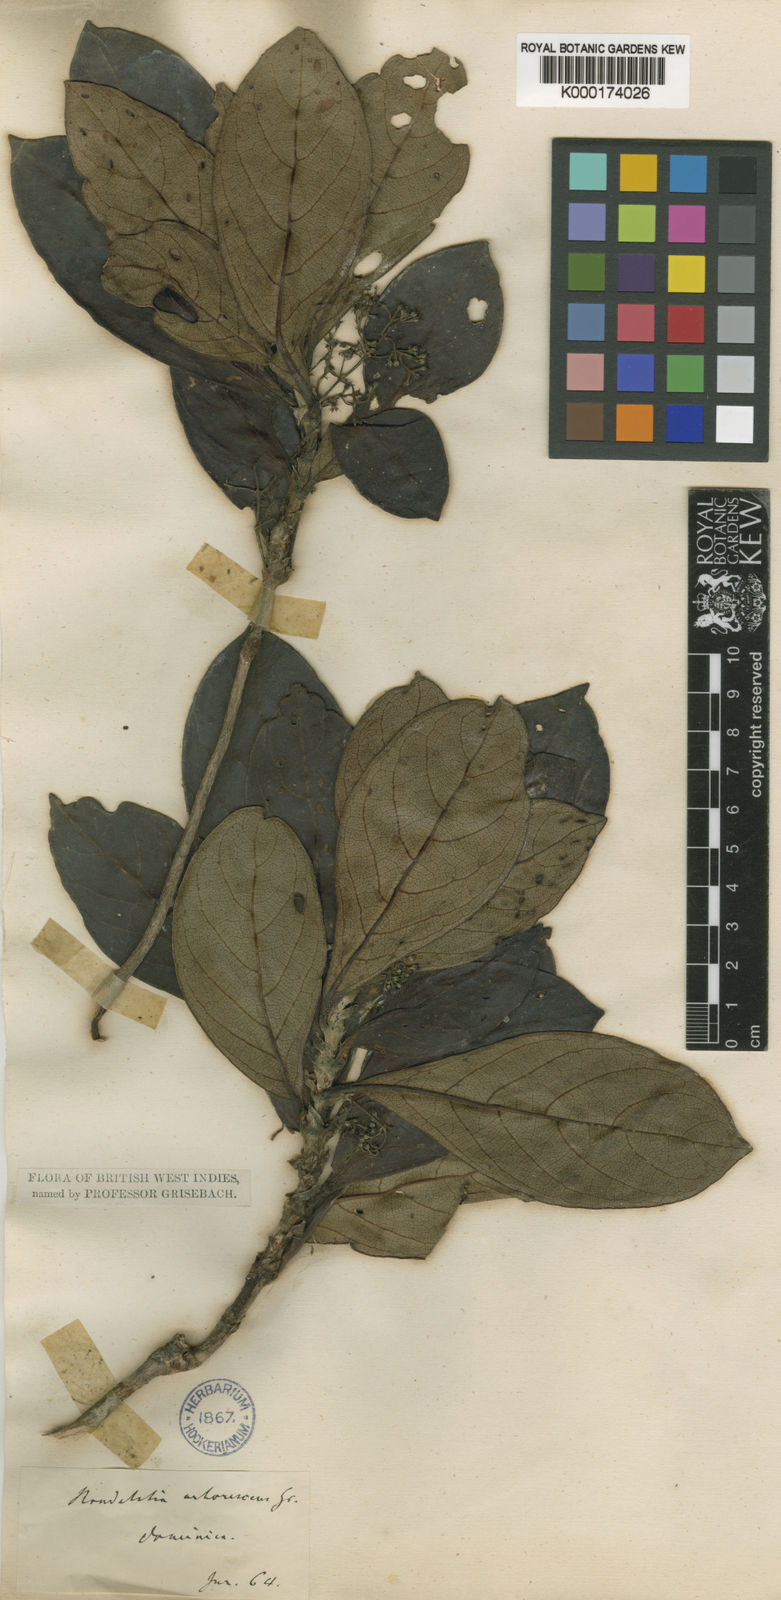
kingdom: Plantae
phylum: Tracheophyta
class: Magnoliopsida
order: Gentianales
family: Rubiaceae
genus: Rondeletia
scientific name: Rondeletia parviflora
